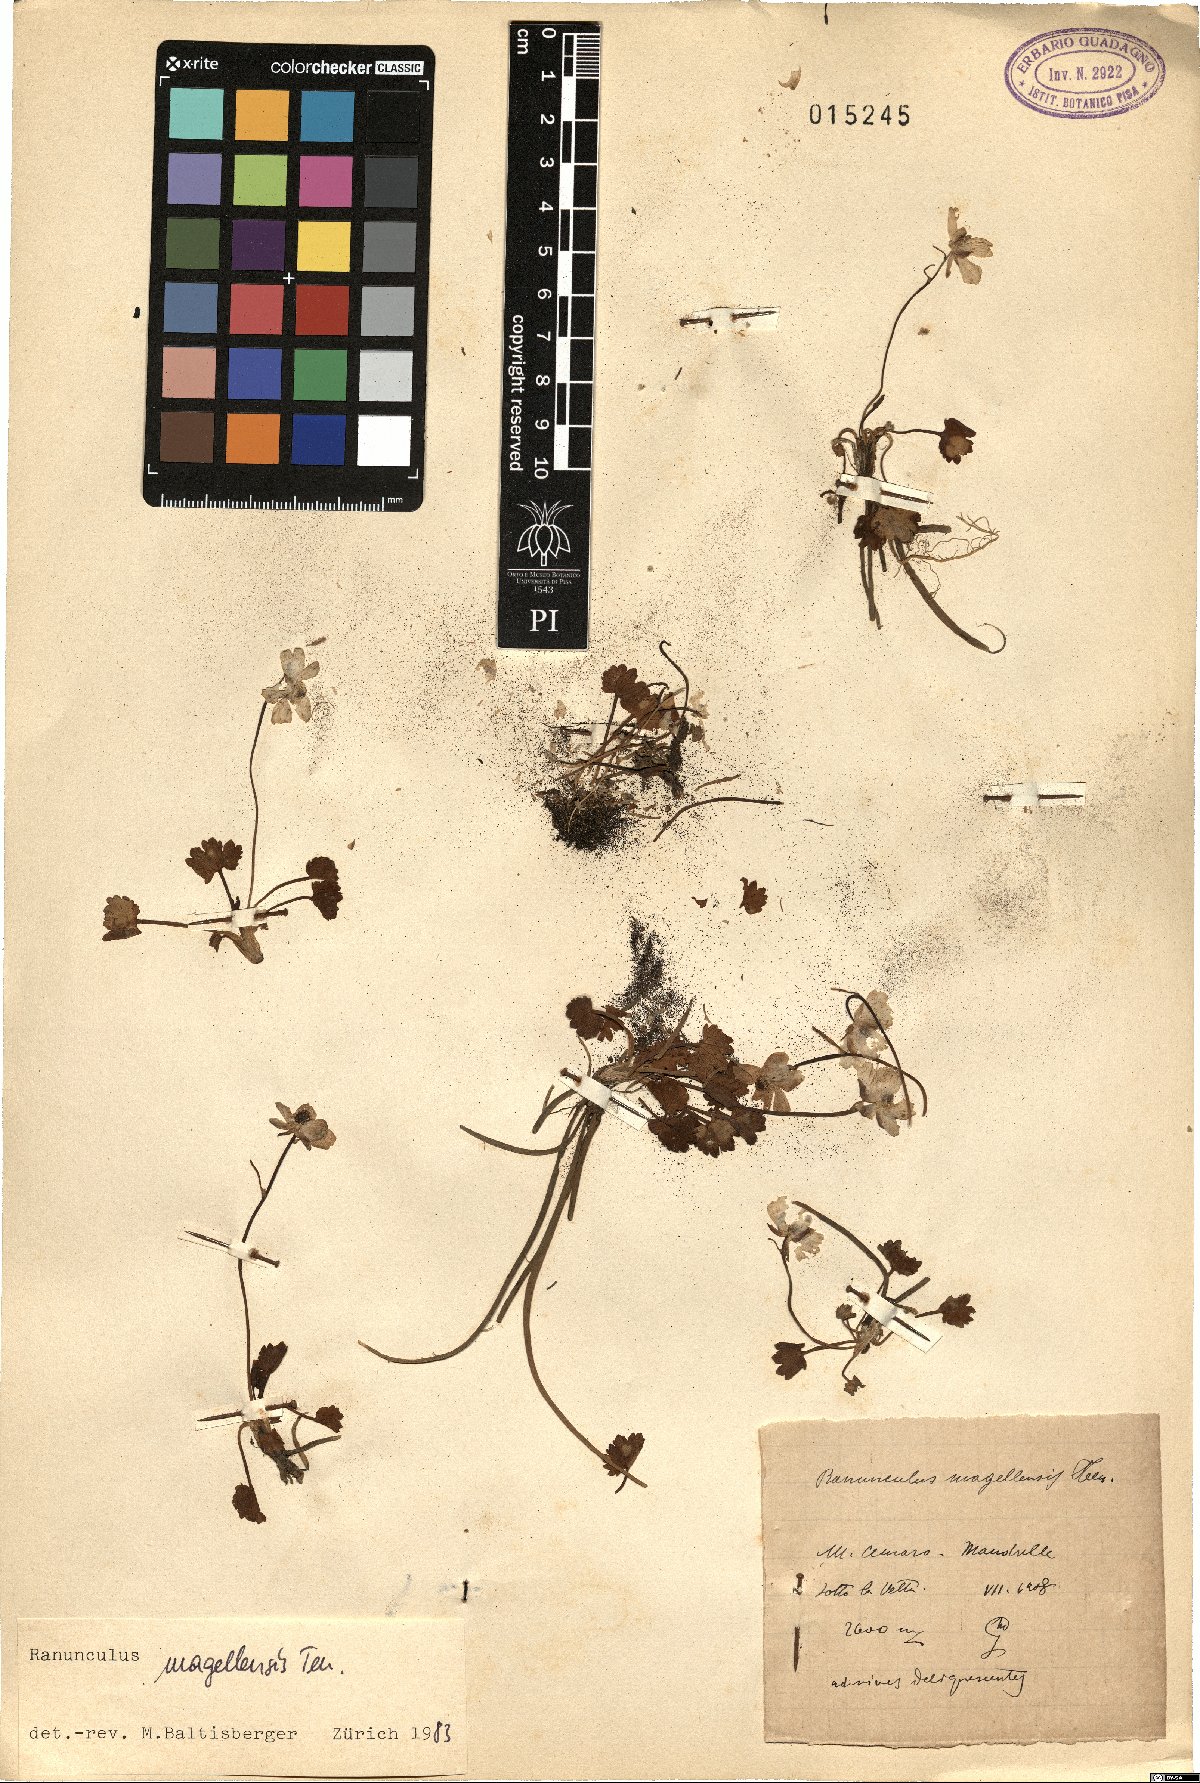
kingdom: Plantae
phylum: Tracheophyta
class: Magnoliopsida
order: Ranunculales
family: Ranunculaceae
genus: Ranunculus
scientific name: Ranunculus magellensis
